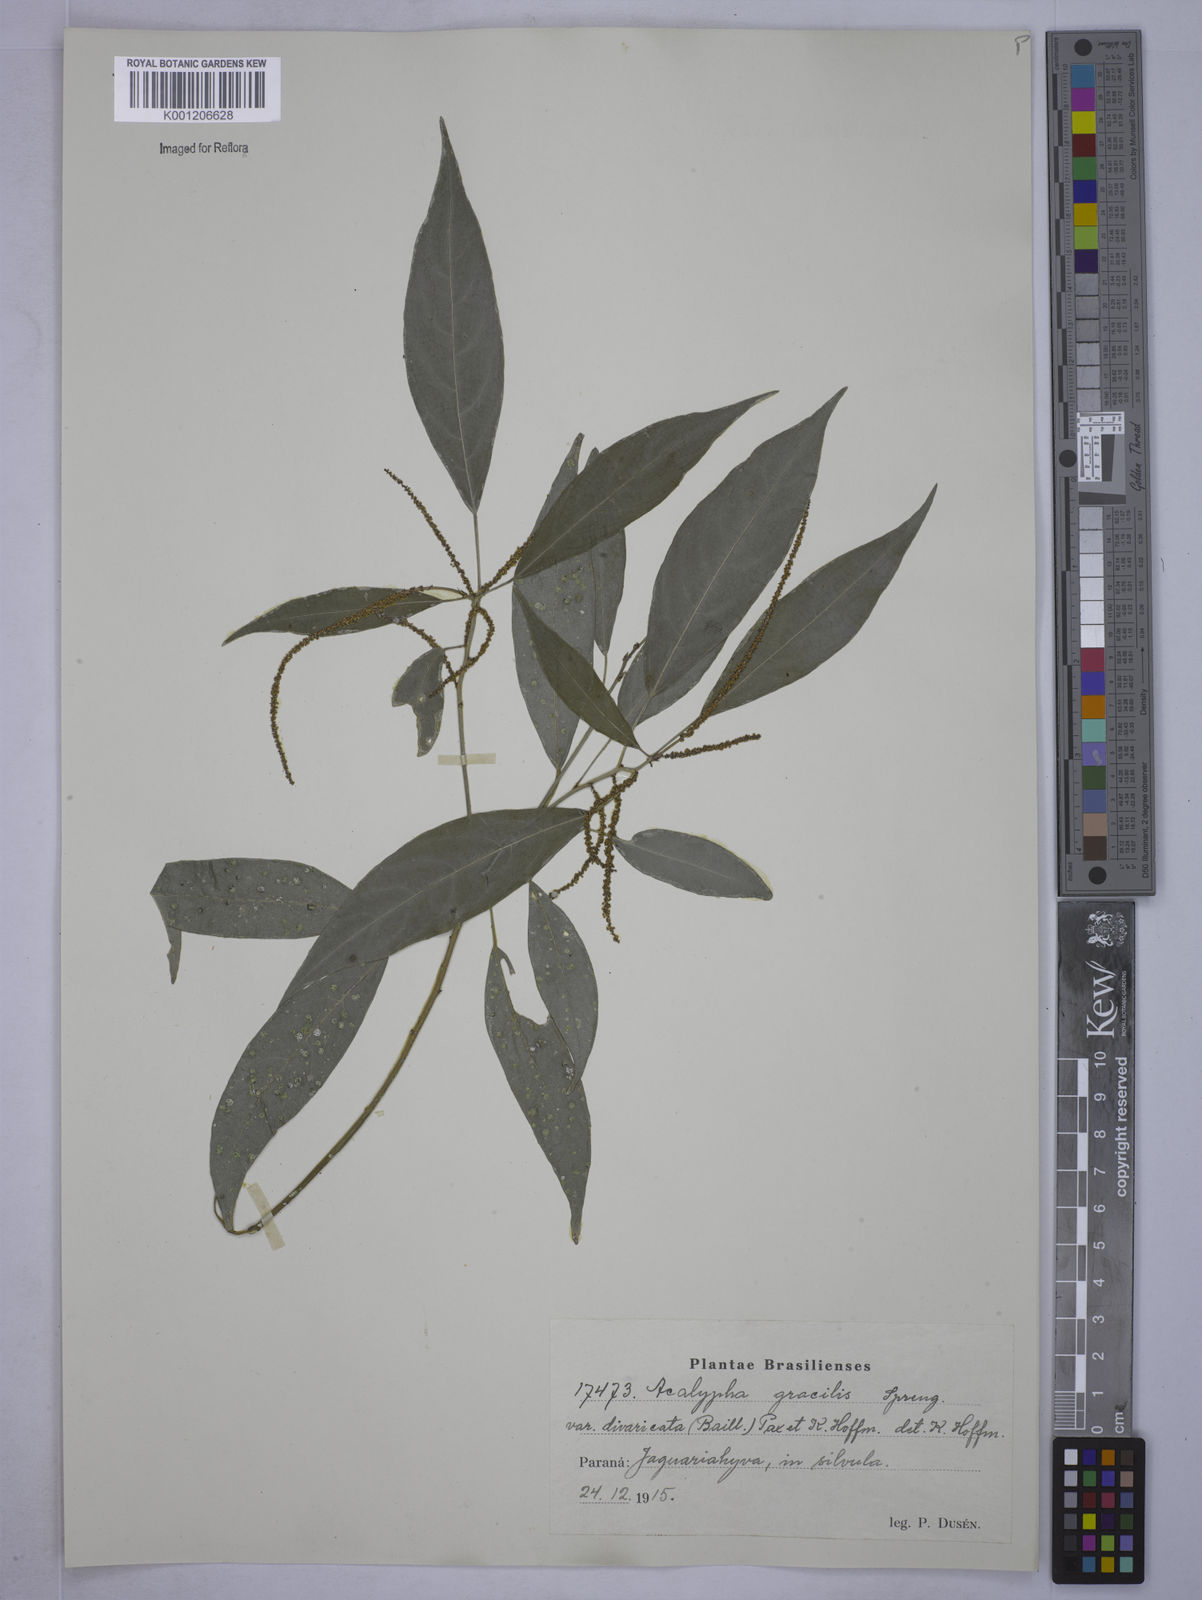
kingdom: Plantae
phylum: Tracheophyta
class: Magnoliopsida
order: Malpighiales
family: Euphorbiaceae
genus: Acalypha
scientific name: Acalypha gracilis
